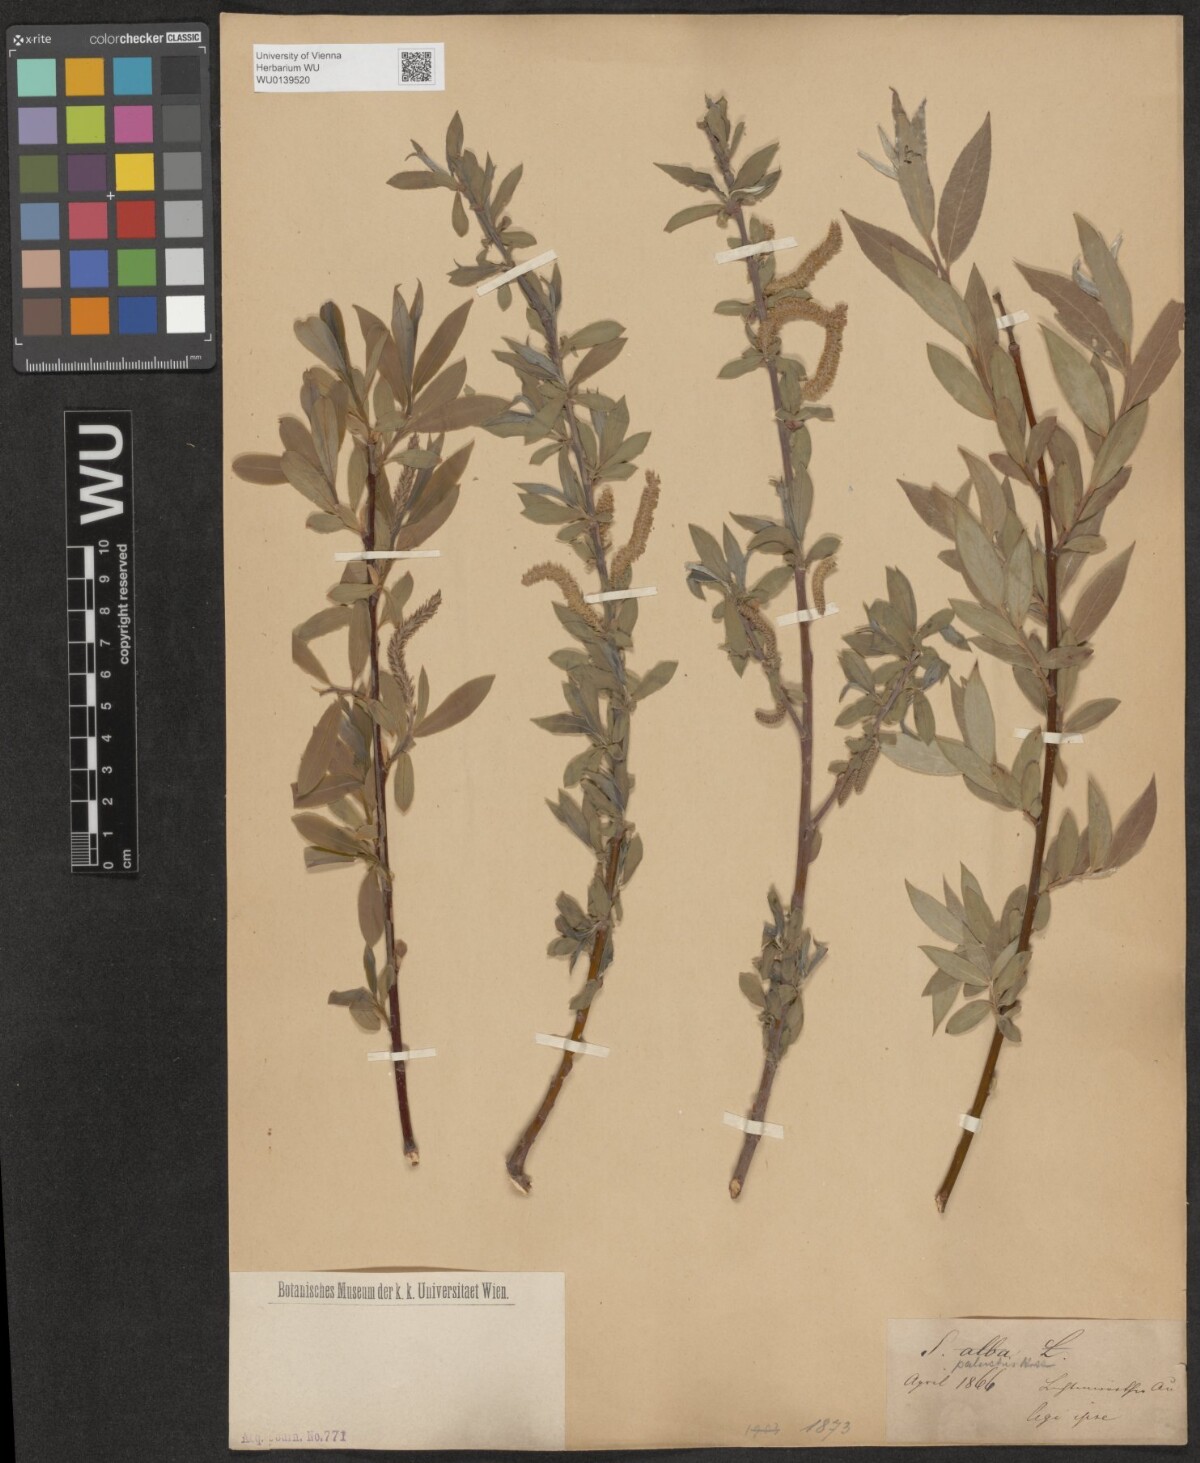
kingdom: Plantae
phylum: Tracheophyta
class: Magnoliopsida
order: Malpighiales
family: Salicaceae
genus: Salix
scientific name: Salix rubens
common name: Hybrid crack willow
